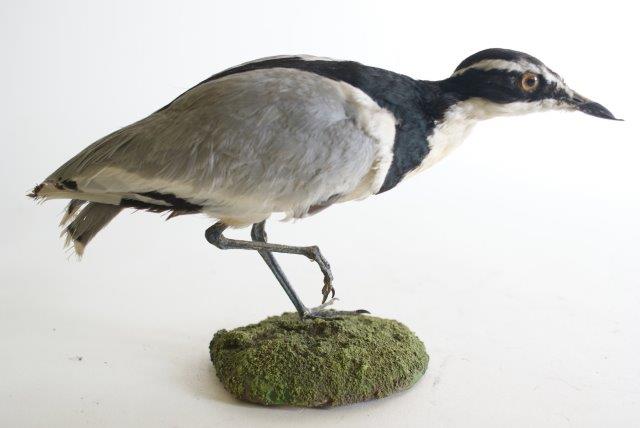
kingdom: Animalia
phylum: Chordata
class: Aves
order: Charadriiformes
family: Pluvianidae
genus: Pluvianus
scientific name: Pluvianus aegyptius
